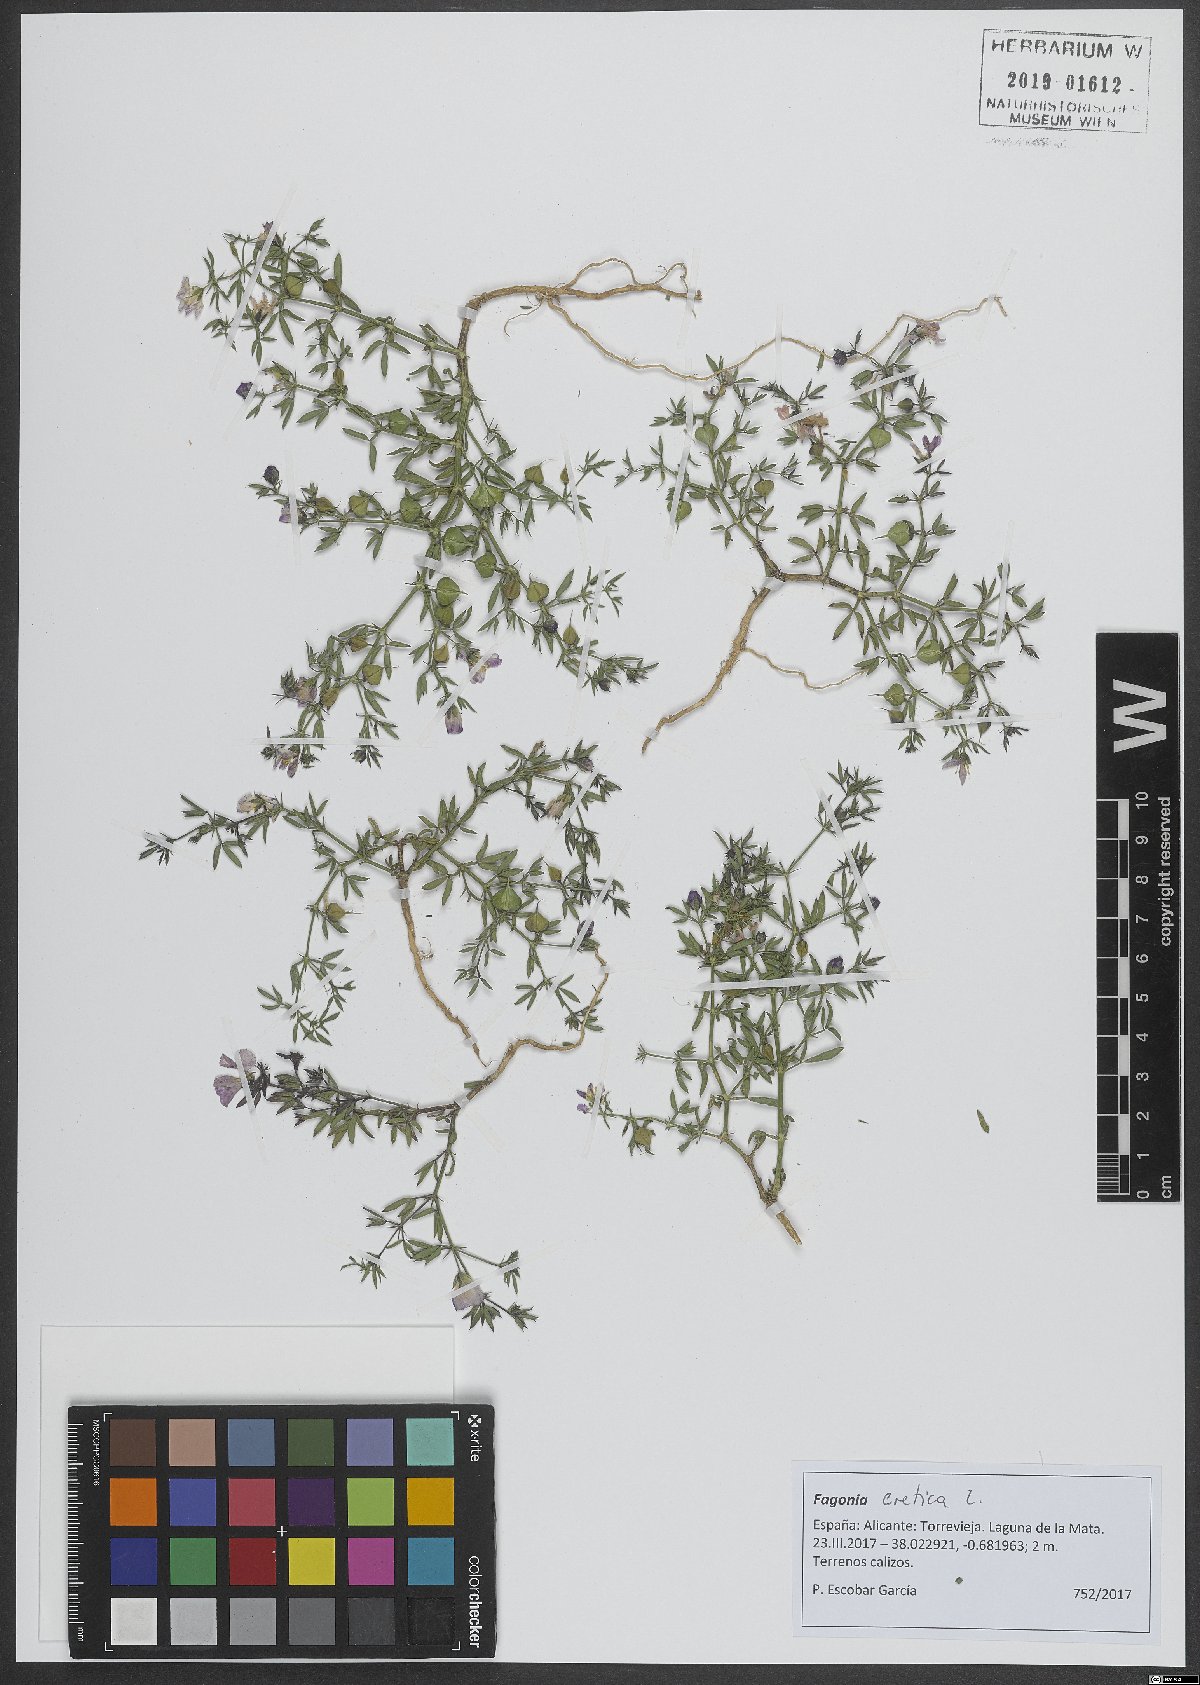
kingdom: Plantae
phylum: Tracheophyta
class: Magnoliopsida
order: Zygophyllales
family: Zygophyllaceae
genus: Fagonia
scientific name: Fagonia cretica
